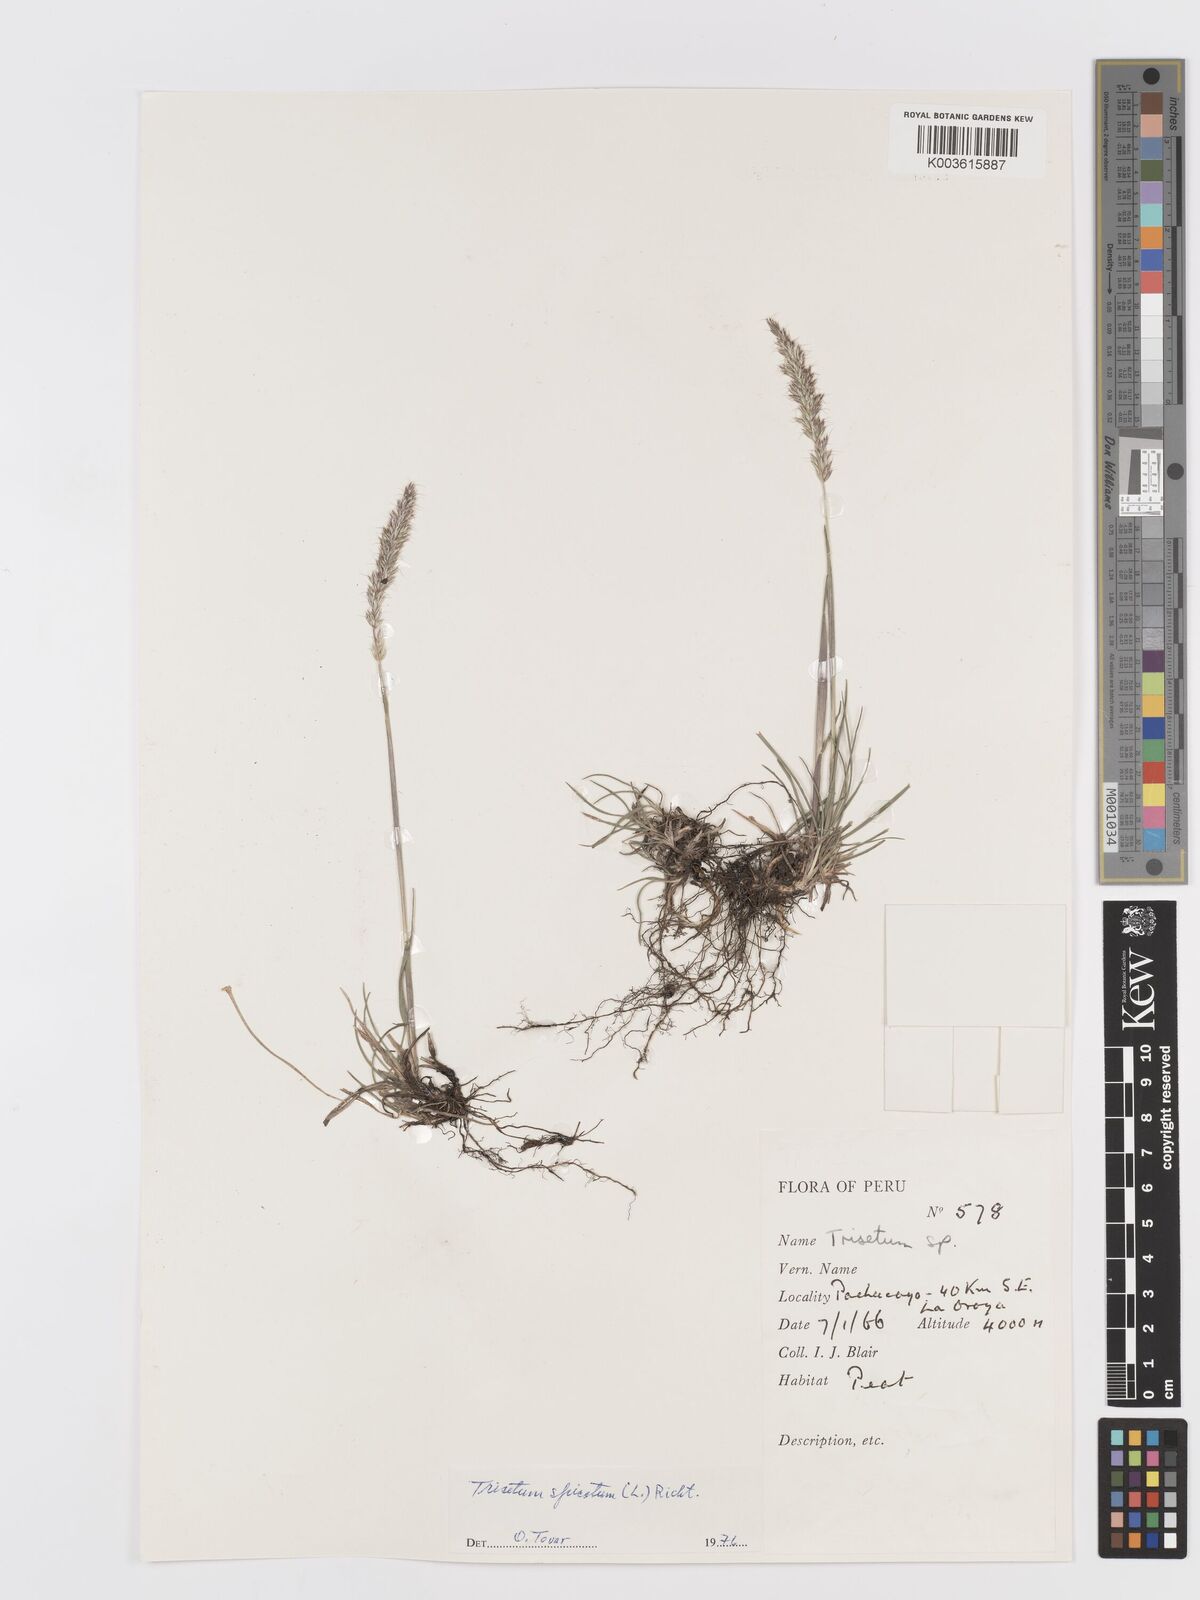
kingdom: Plantae
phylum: Tracheophyta
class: Liliopsida
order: Poales
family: Poaceae
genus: Koeleria
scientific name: Koeleria spicata
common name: Mountain trisetum
